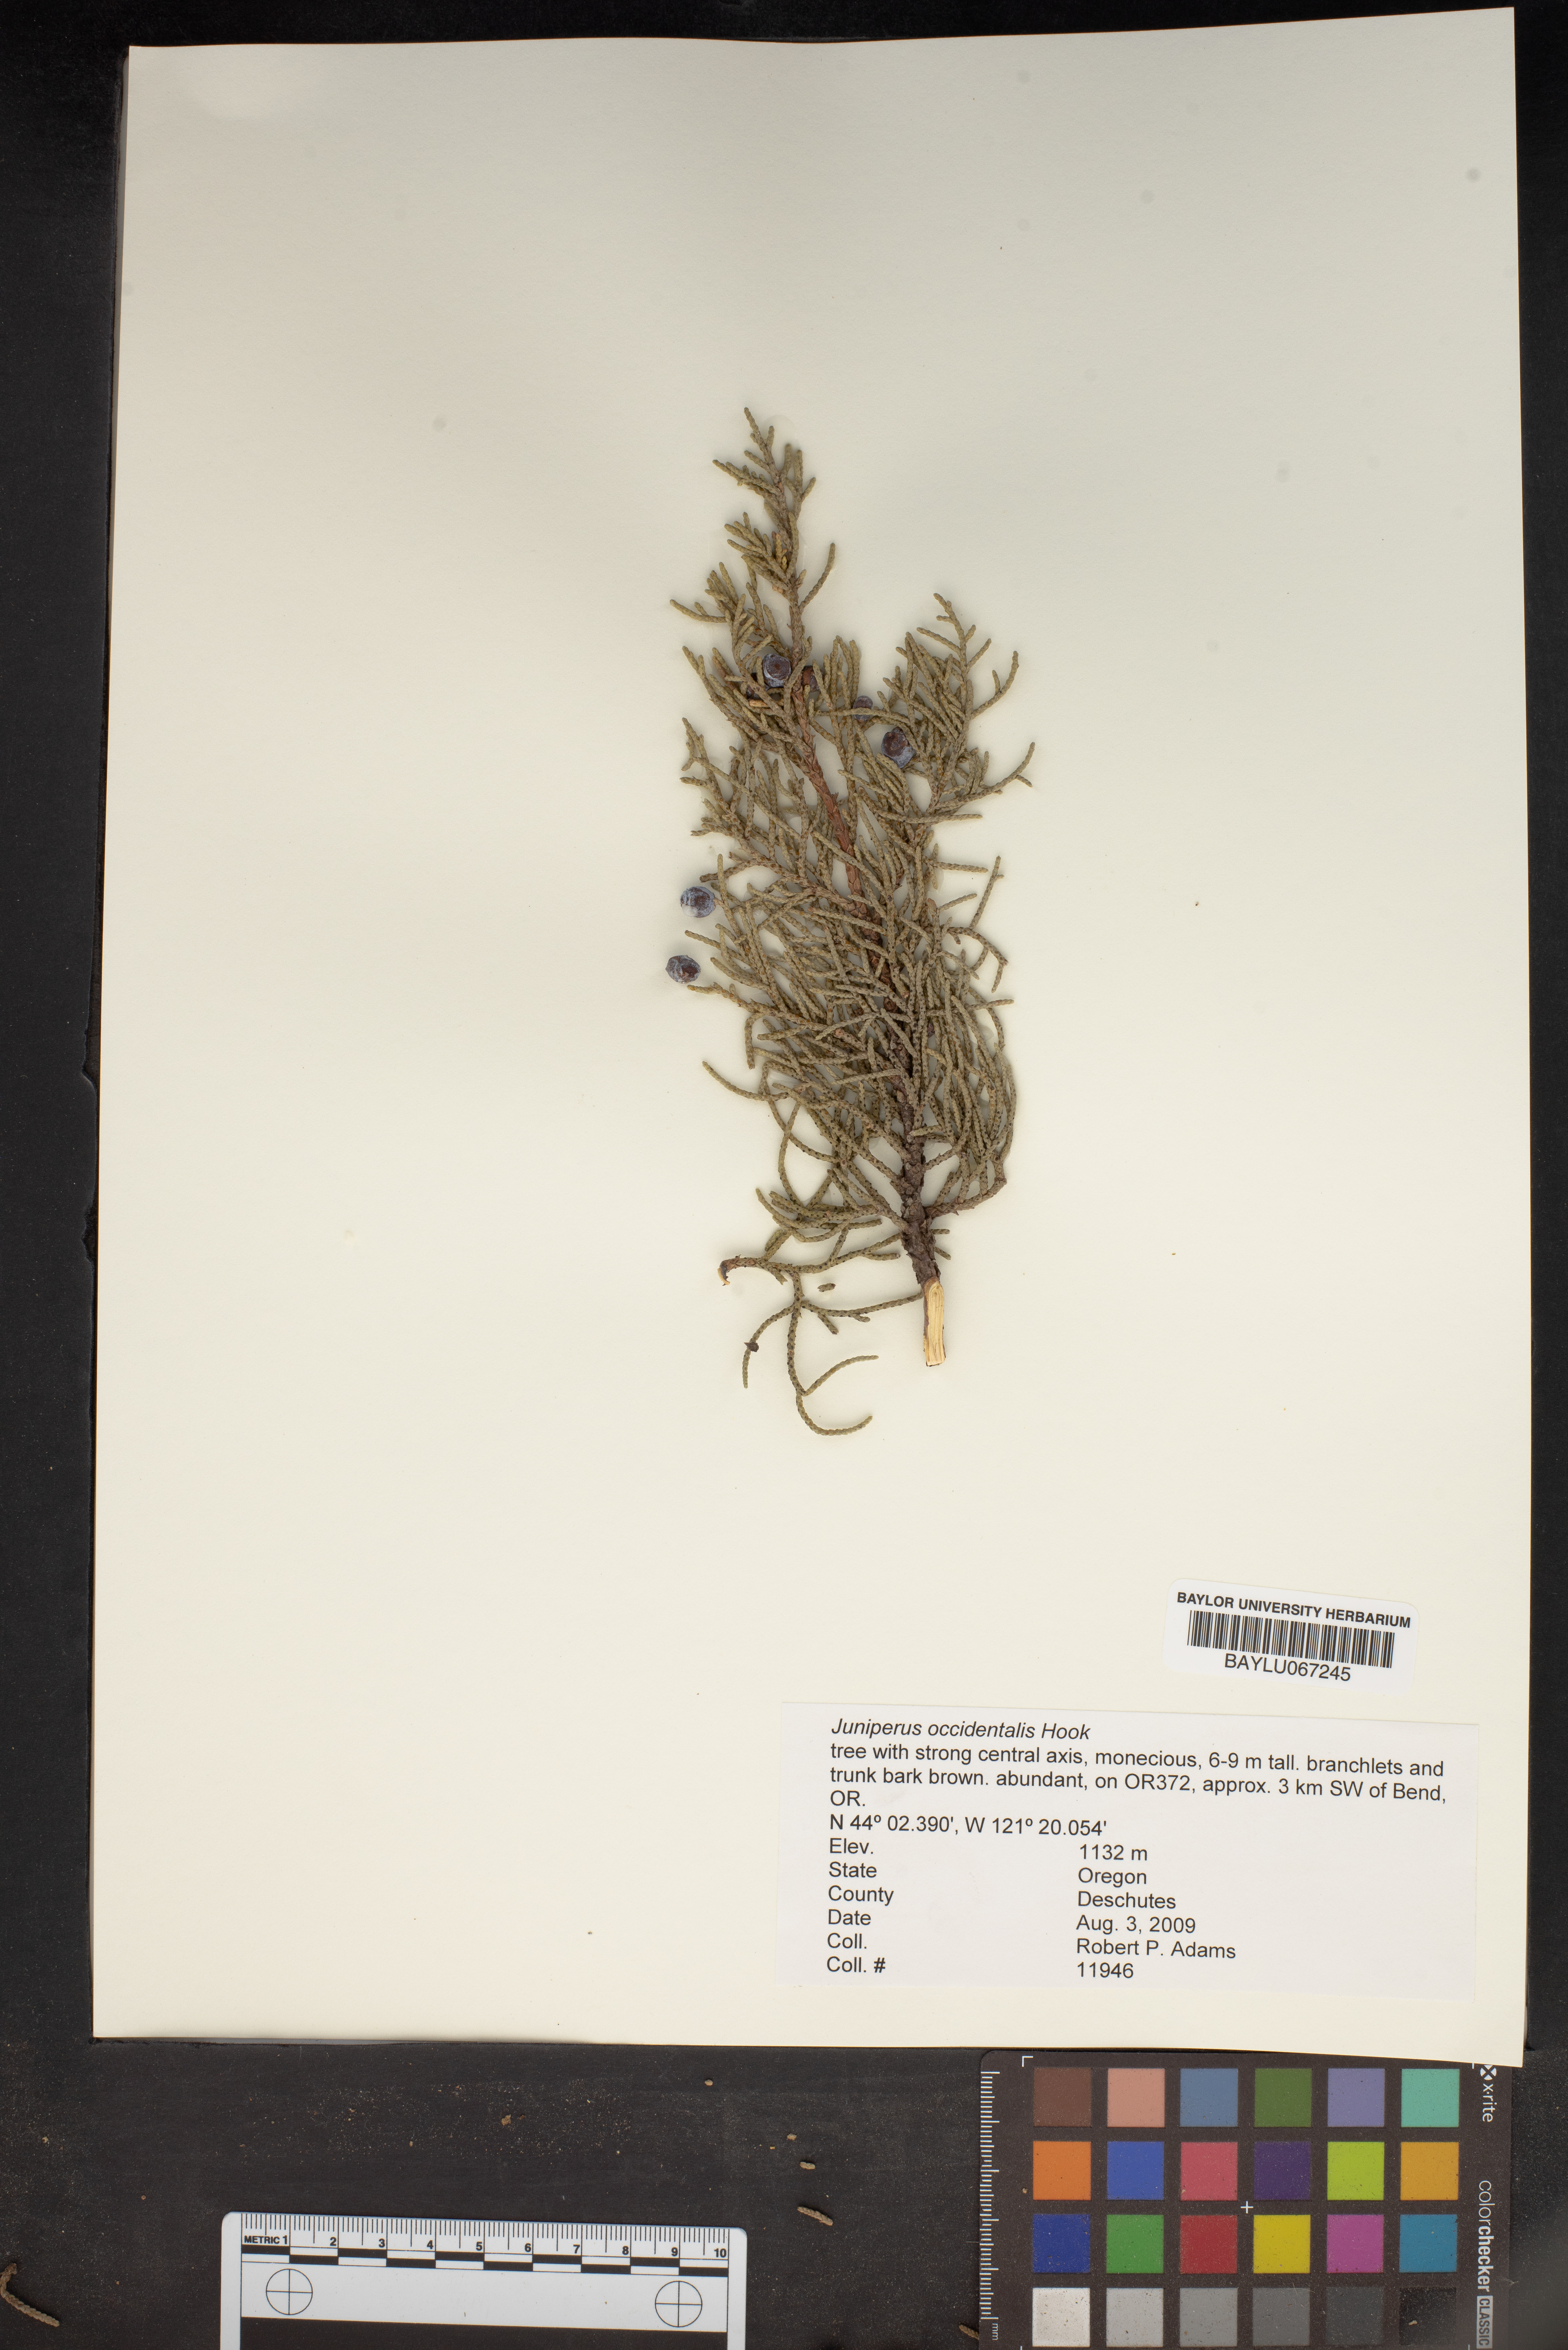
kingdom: Plantae
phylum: Tracheophyta
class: Pinopsida
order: Pinales
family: Cupressaceae
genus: Juniperus
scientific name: Juniperus occidentalis
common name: Western juniper
